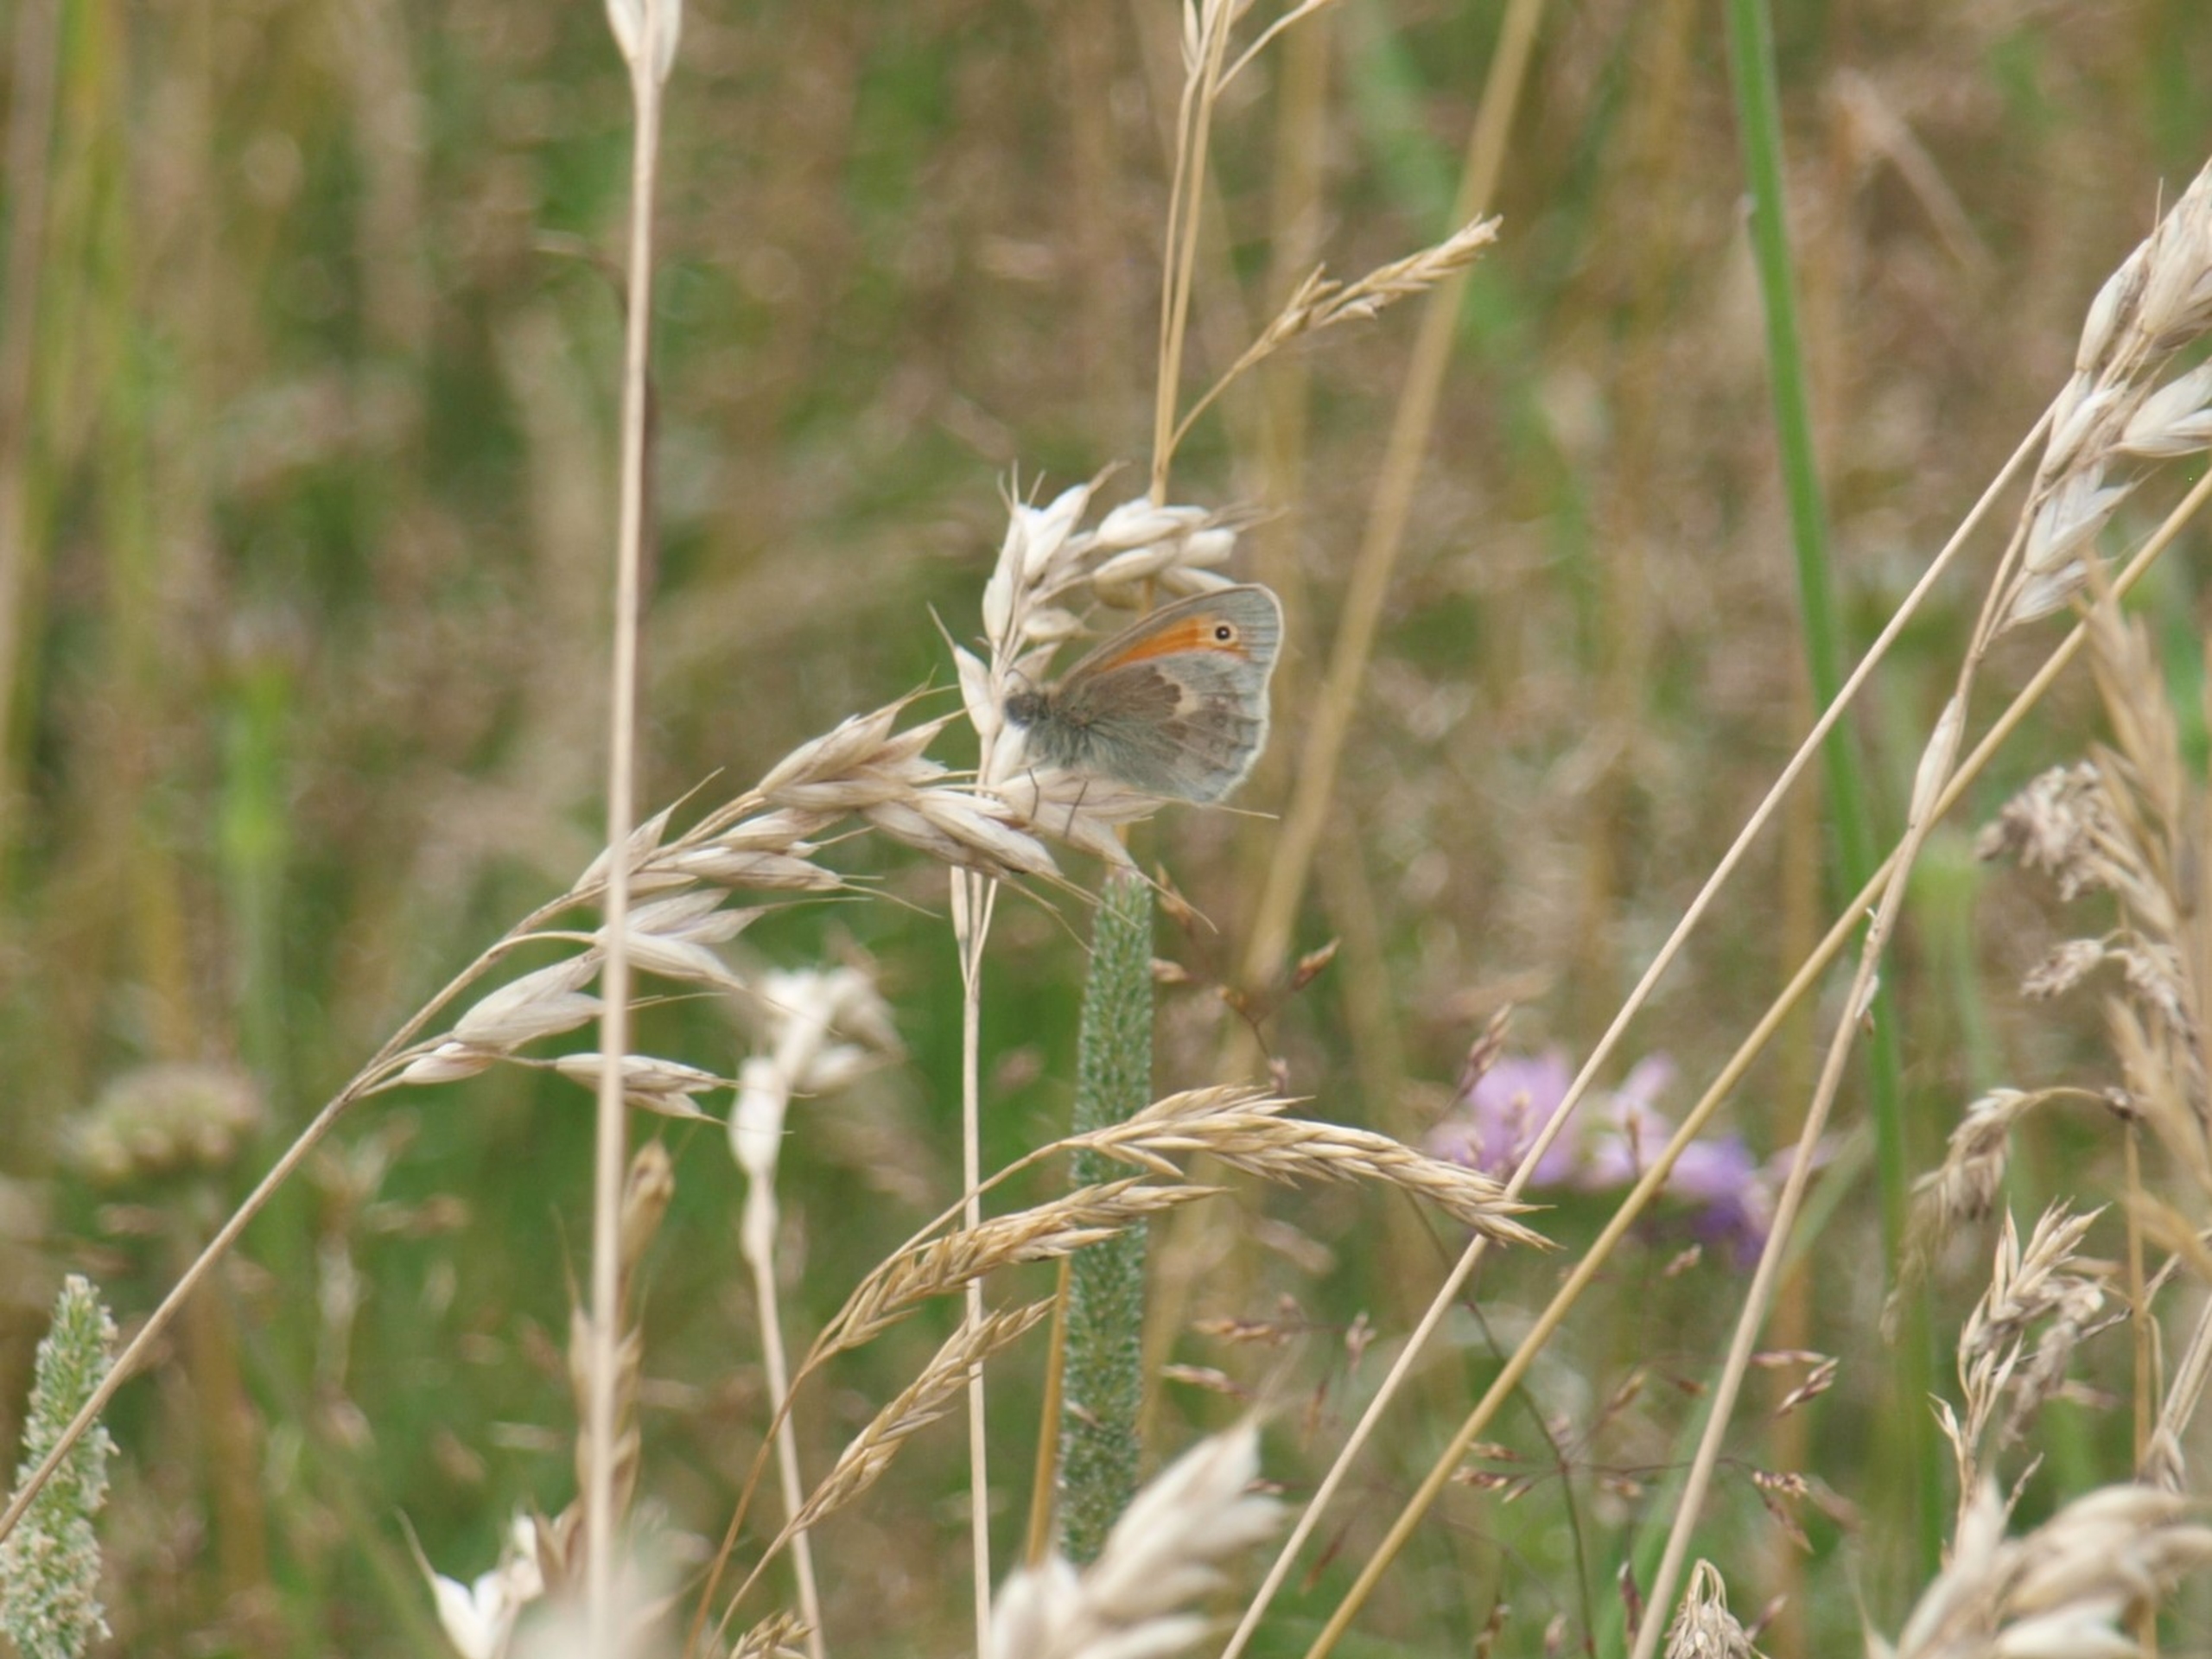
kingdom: Animalia
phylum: Arthropoda
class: Insecta
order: Lepidoptera
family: Nymphalidae
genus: Coenonympha
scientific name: Coenonympha pamphilus
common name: Okkergul randøje
